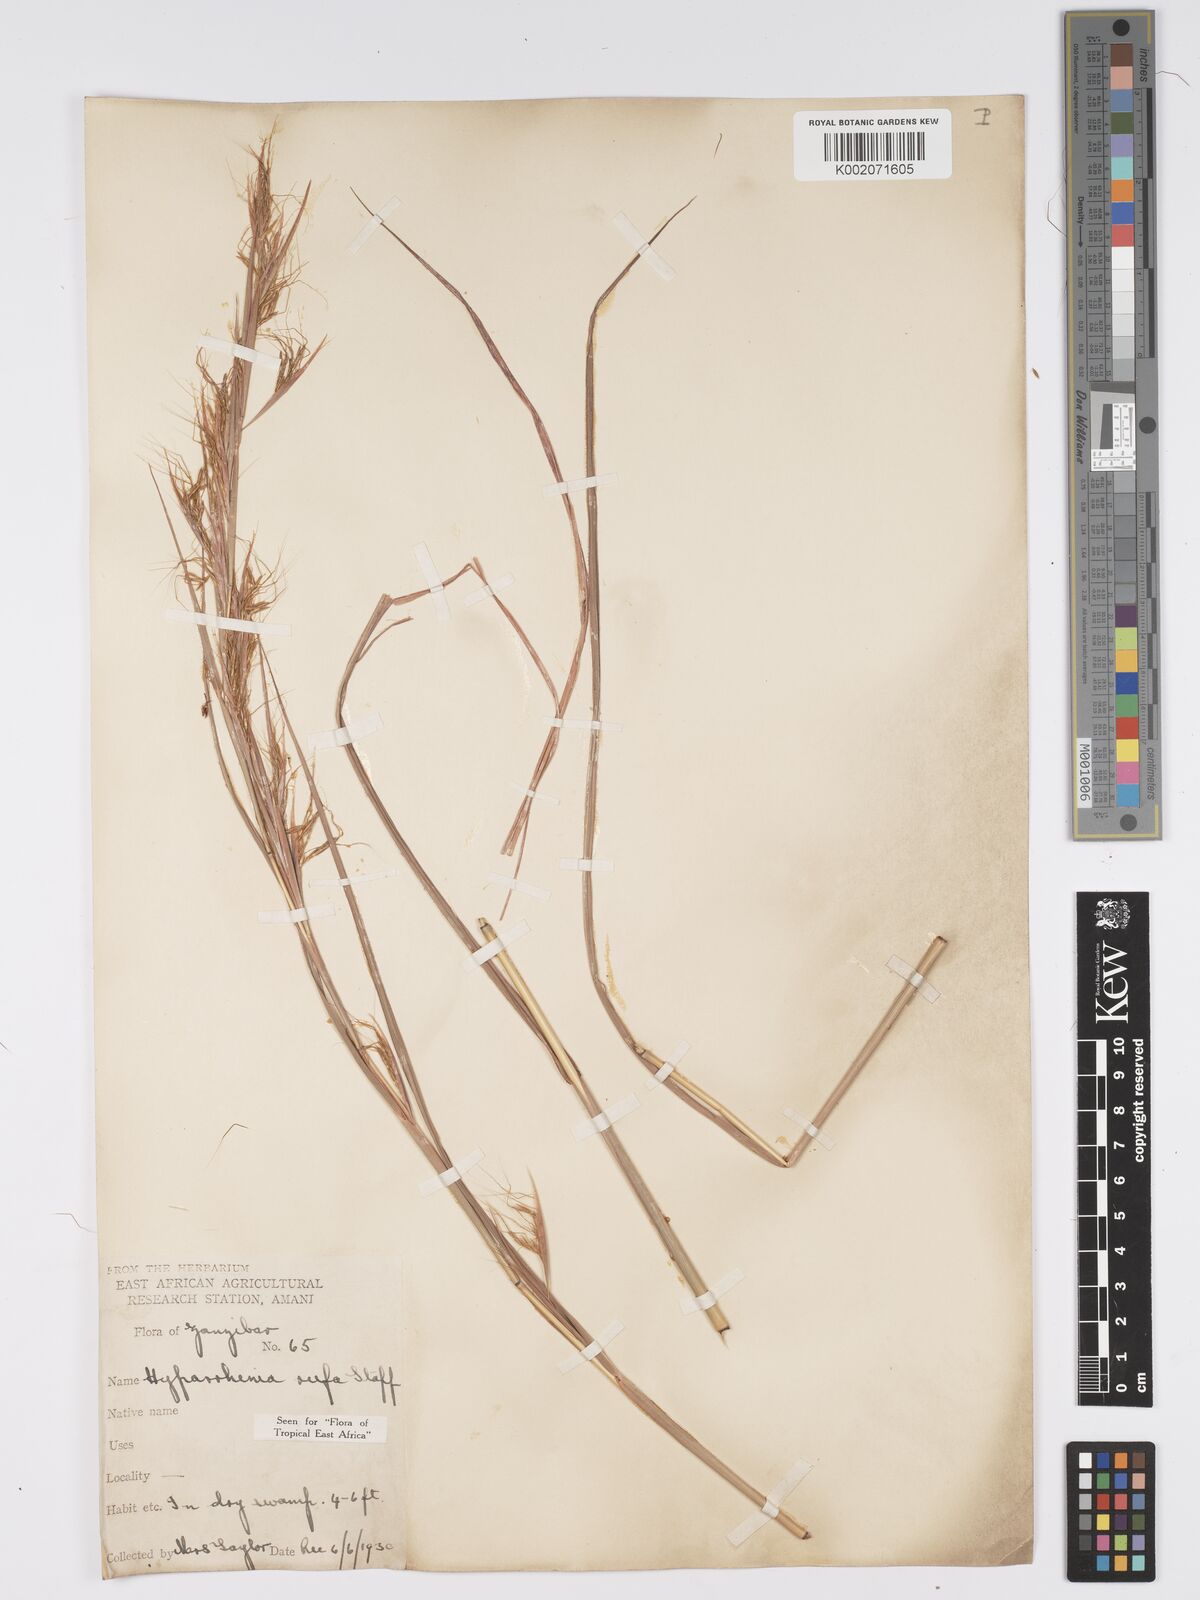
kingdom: Plantae
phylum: Tracheophyta
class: Liliopsida
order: Poales
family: Poaceae
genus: Hyparrhenia
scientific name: Hyparrhenia rufa
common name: Jaraguagrass
